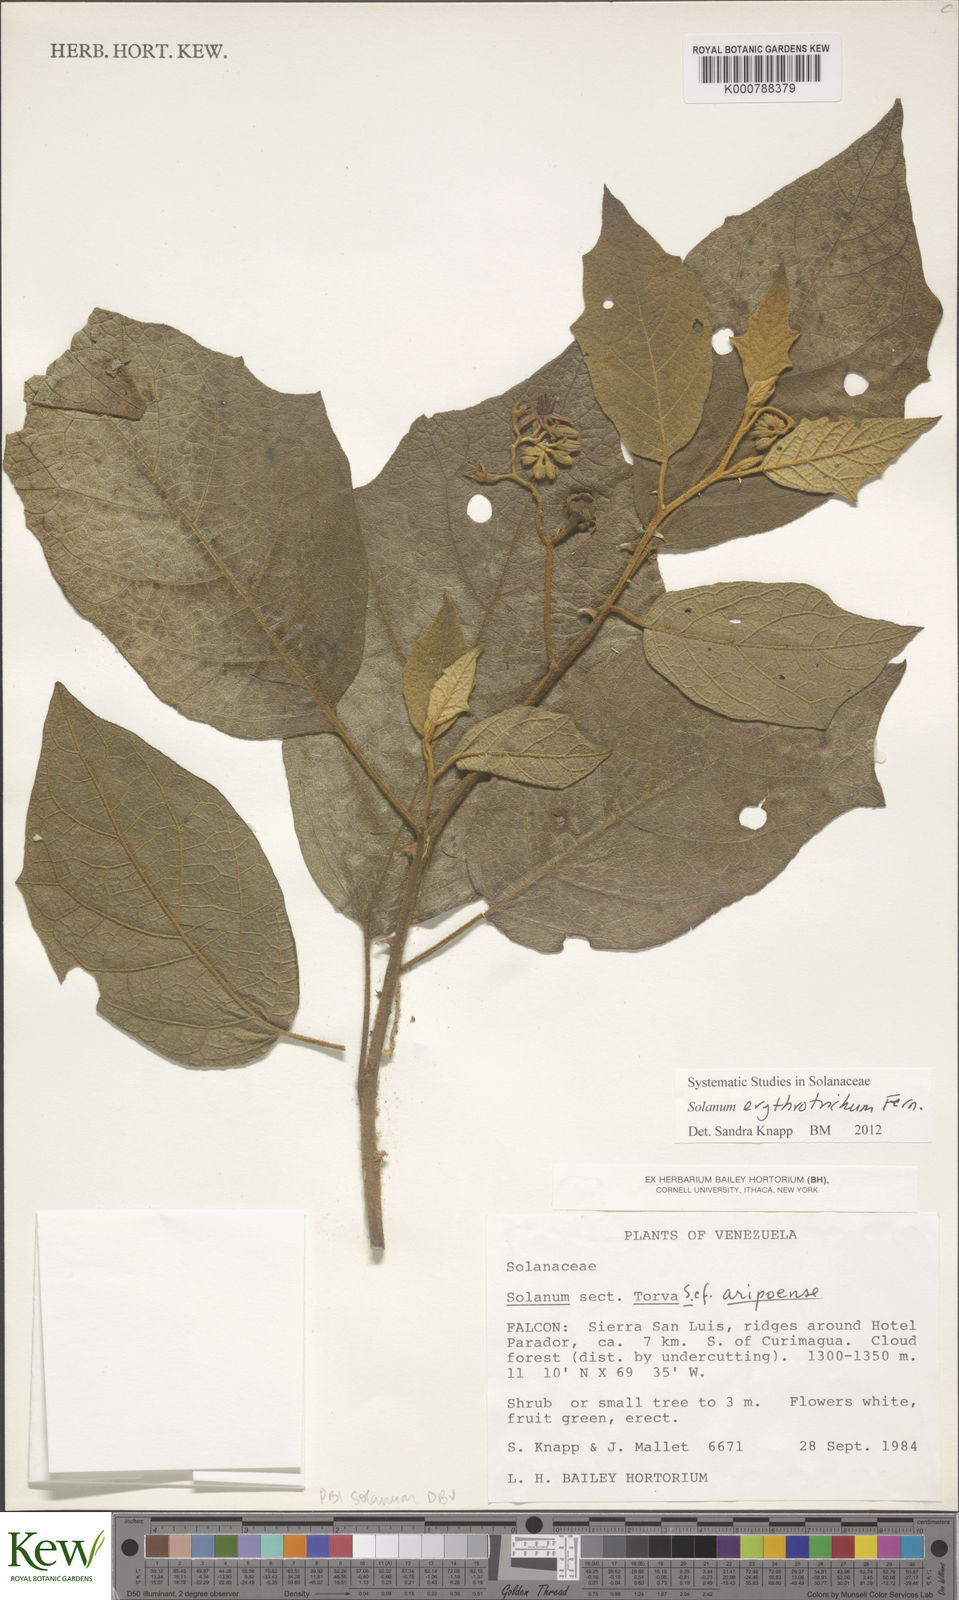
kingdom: Plantae
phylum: Tracheophyta
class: Magnoliopsida
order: Solanales
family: Solanaceae
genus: Solanum
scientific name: Solanum erythrotrichum
